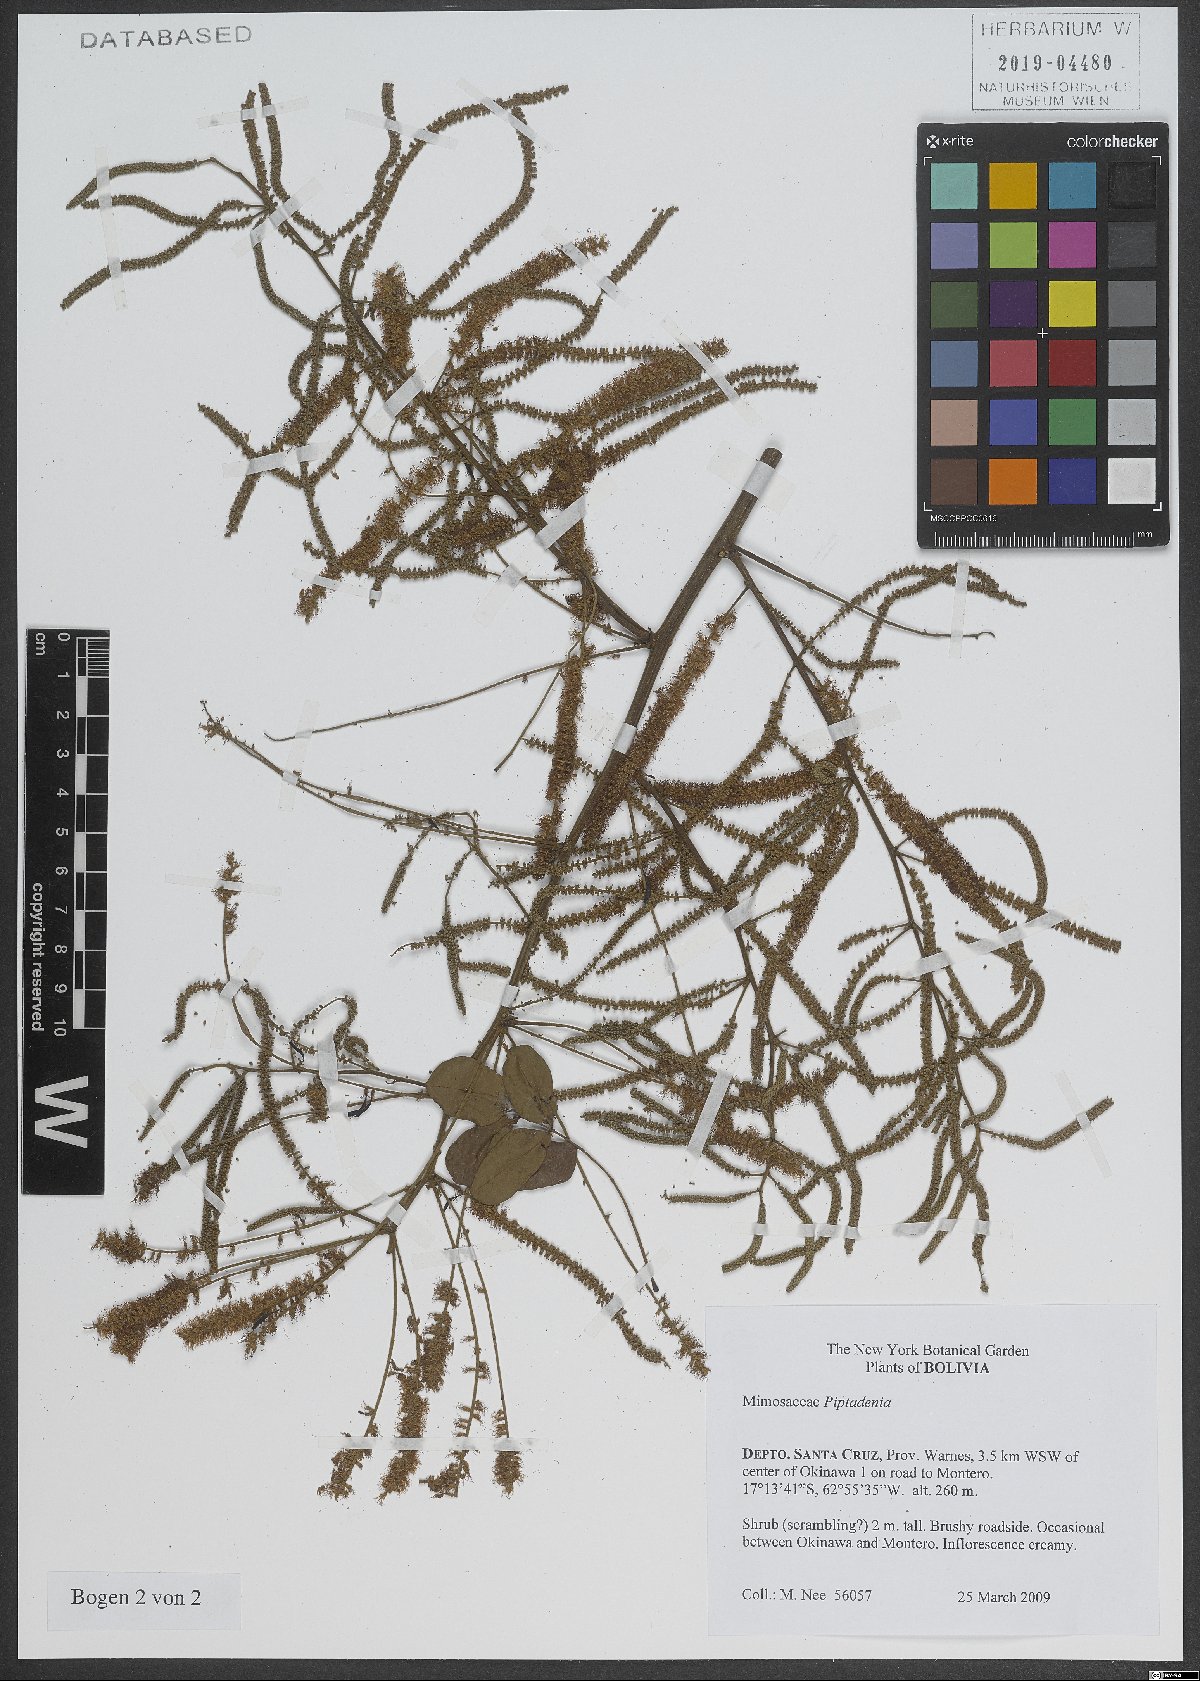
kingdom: Plantae
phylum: Tracheophyta
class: Magnoliopsida
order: Fabales
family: Fabaceae
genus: Piptadenia
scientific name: Piptadenia
